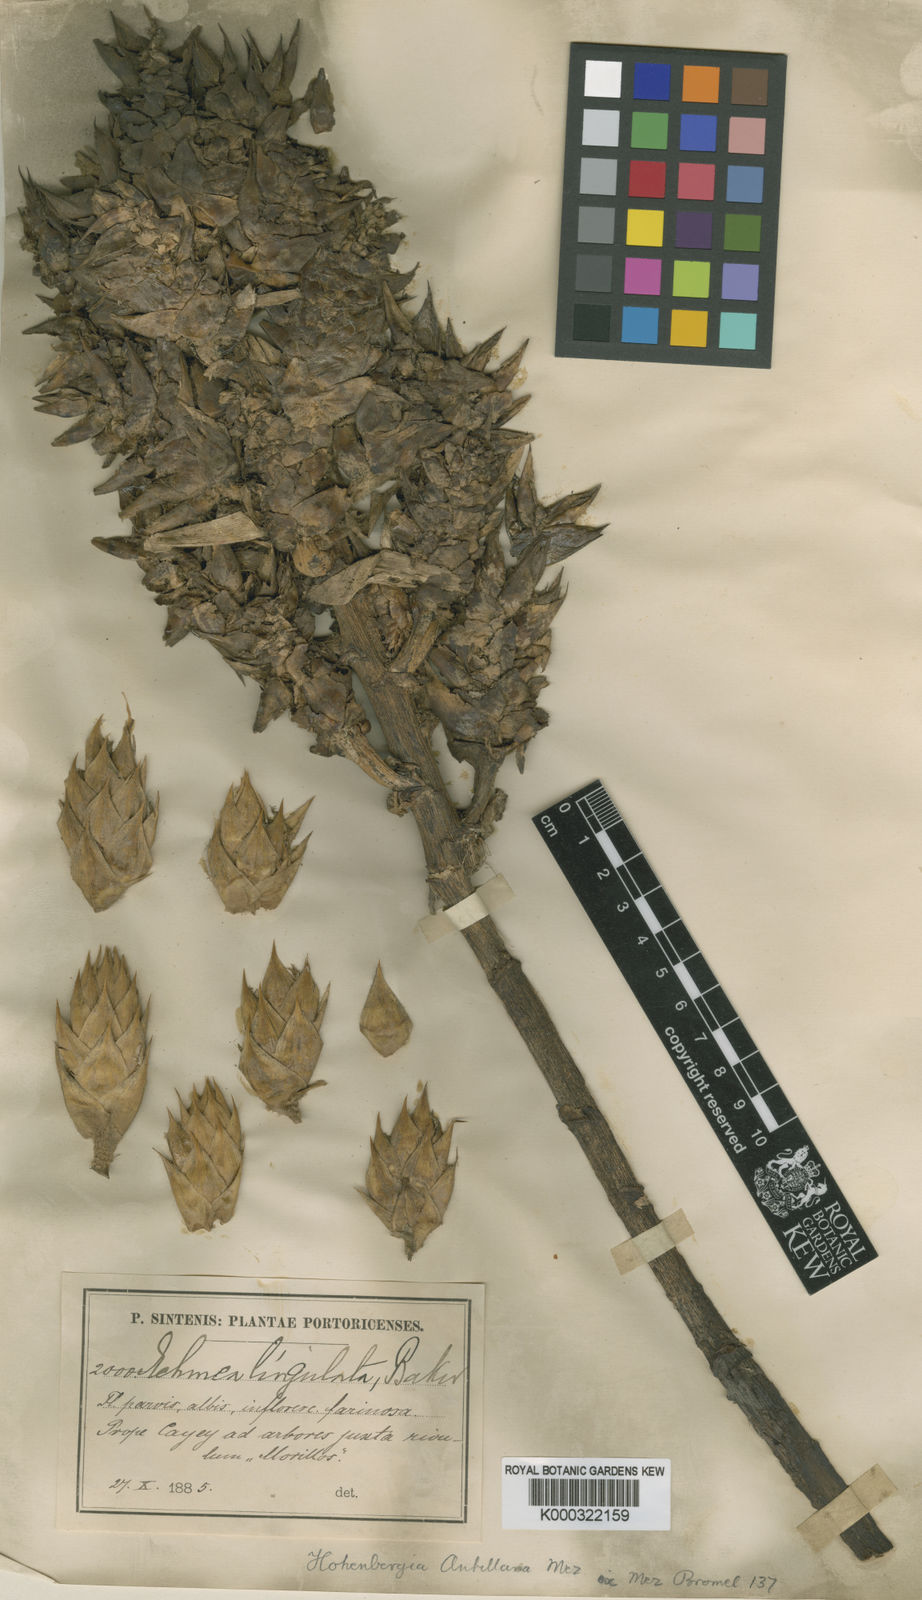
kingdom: Plantae
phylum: Tracheophyta
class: Liliopsida
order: Poales
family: Bromeliaceae
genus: Wittmackia
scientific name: Wittmackia antillana
